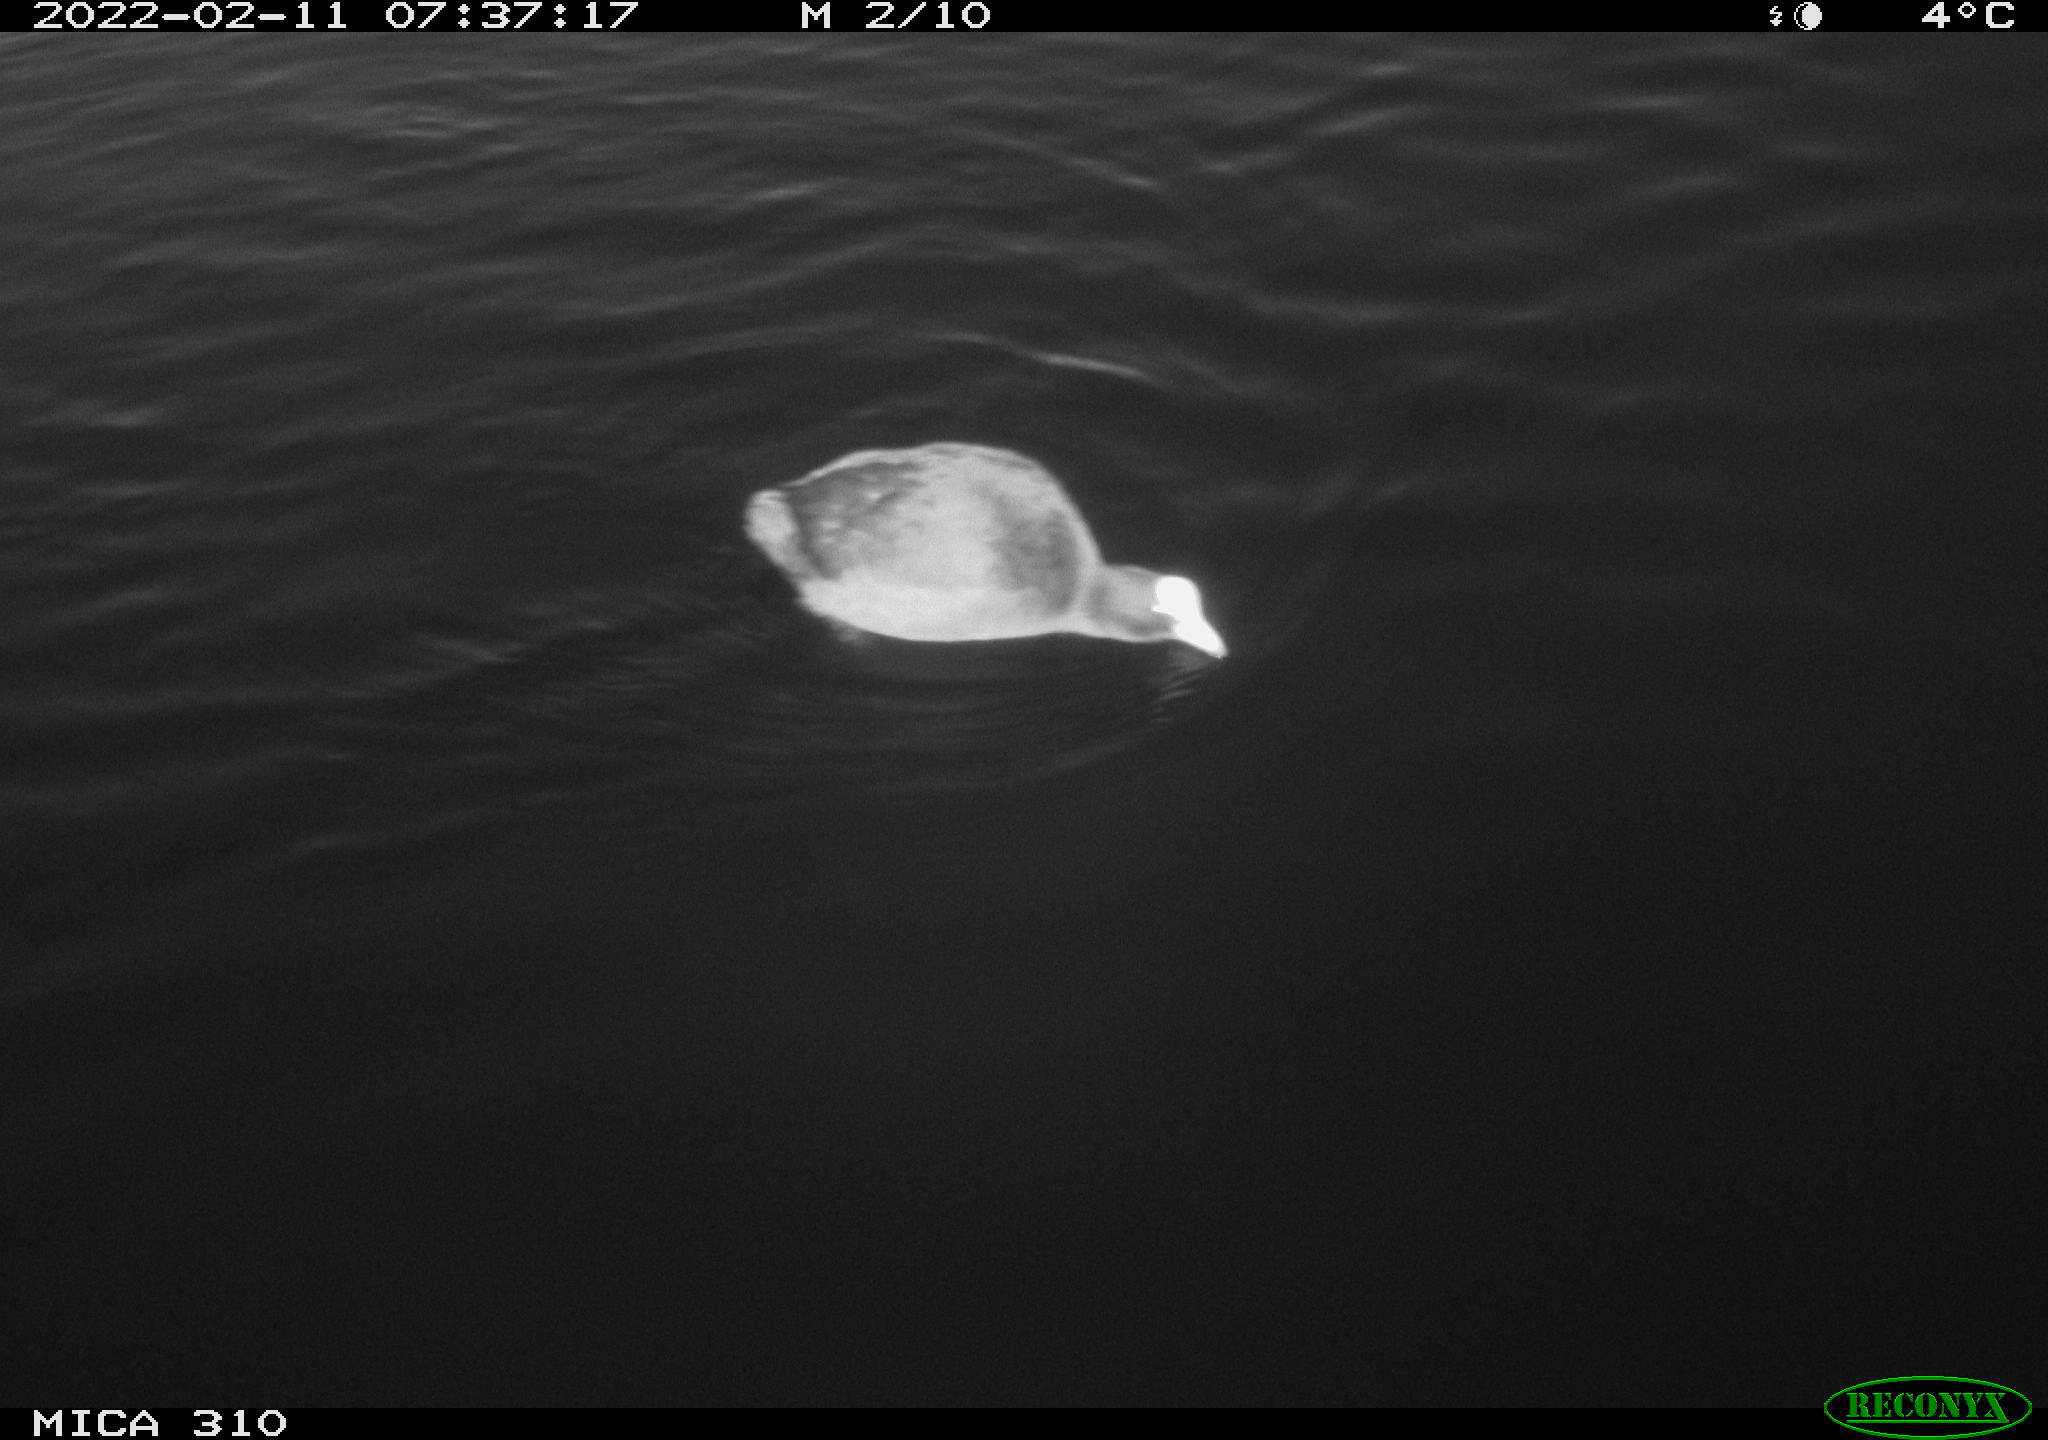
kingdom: Animalia
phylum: Chordata
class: Aves
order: Gruiformes
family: Rallidae
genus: Fulica
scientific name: Fulica atra
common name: Eurasian coot
